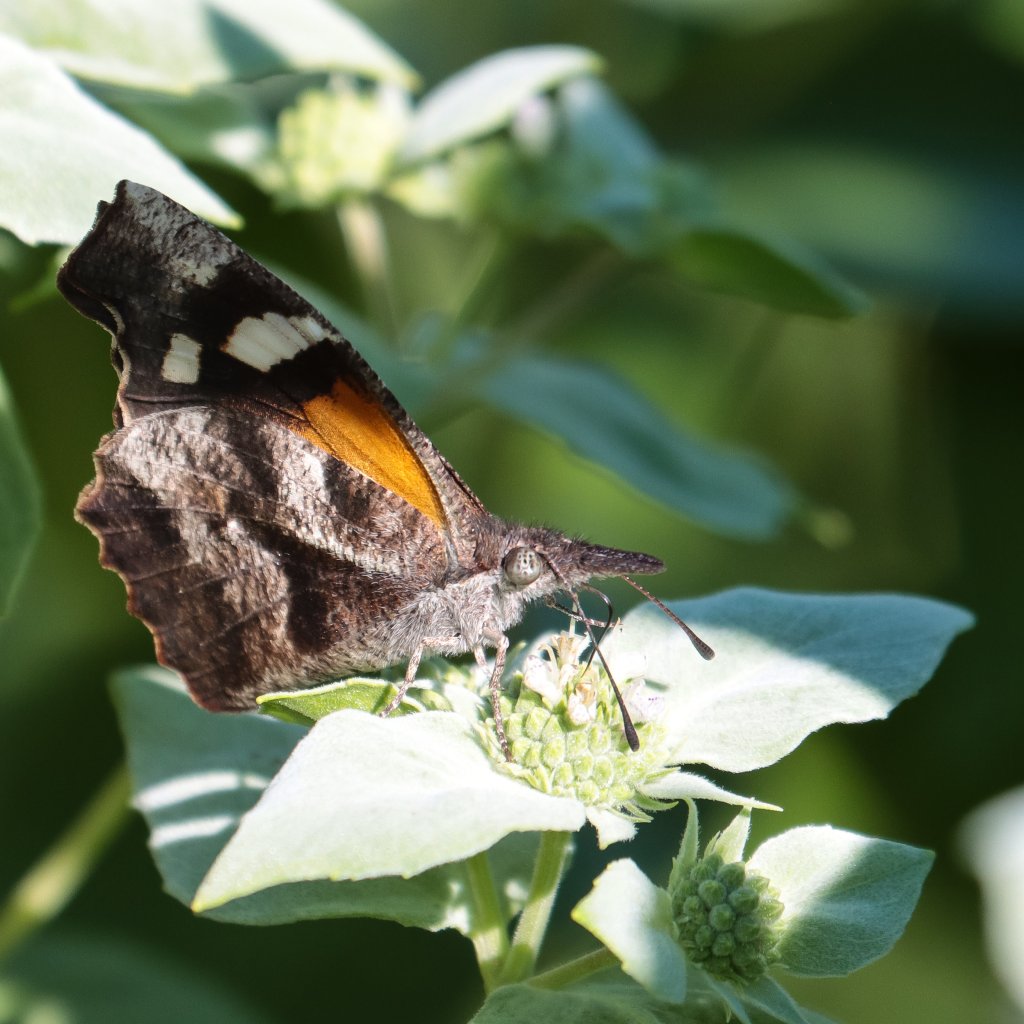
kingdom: Animalia
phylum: Arthropoda
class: Insecta
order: Lepidoptera
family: Nymphalidae
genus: Libytheana
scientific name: Libytheana carinenta
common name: American Snout
